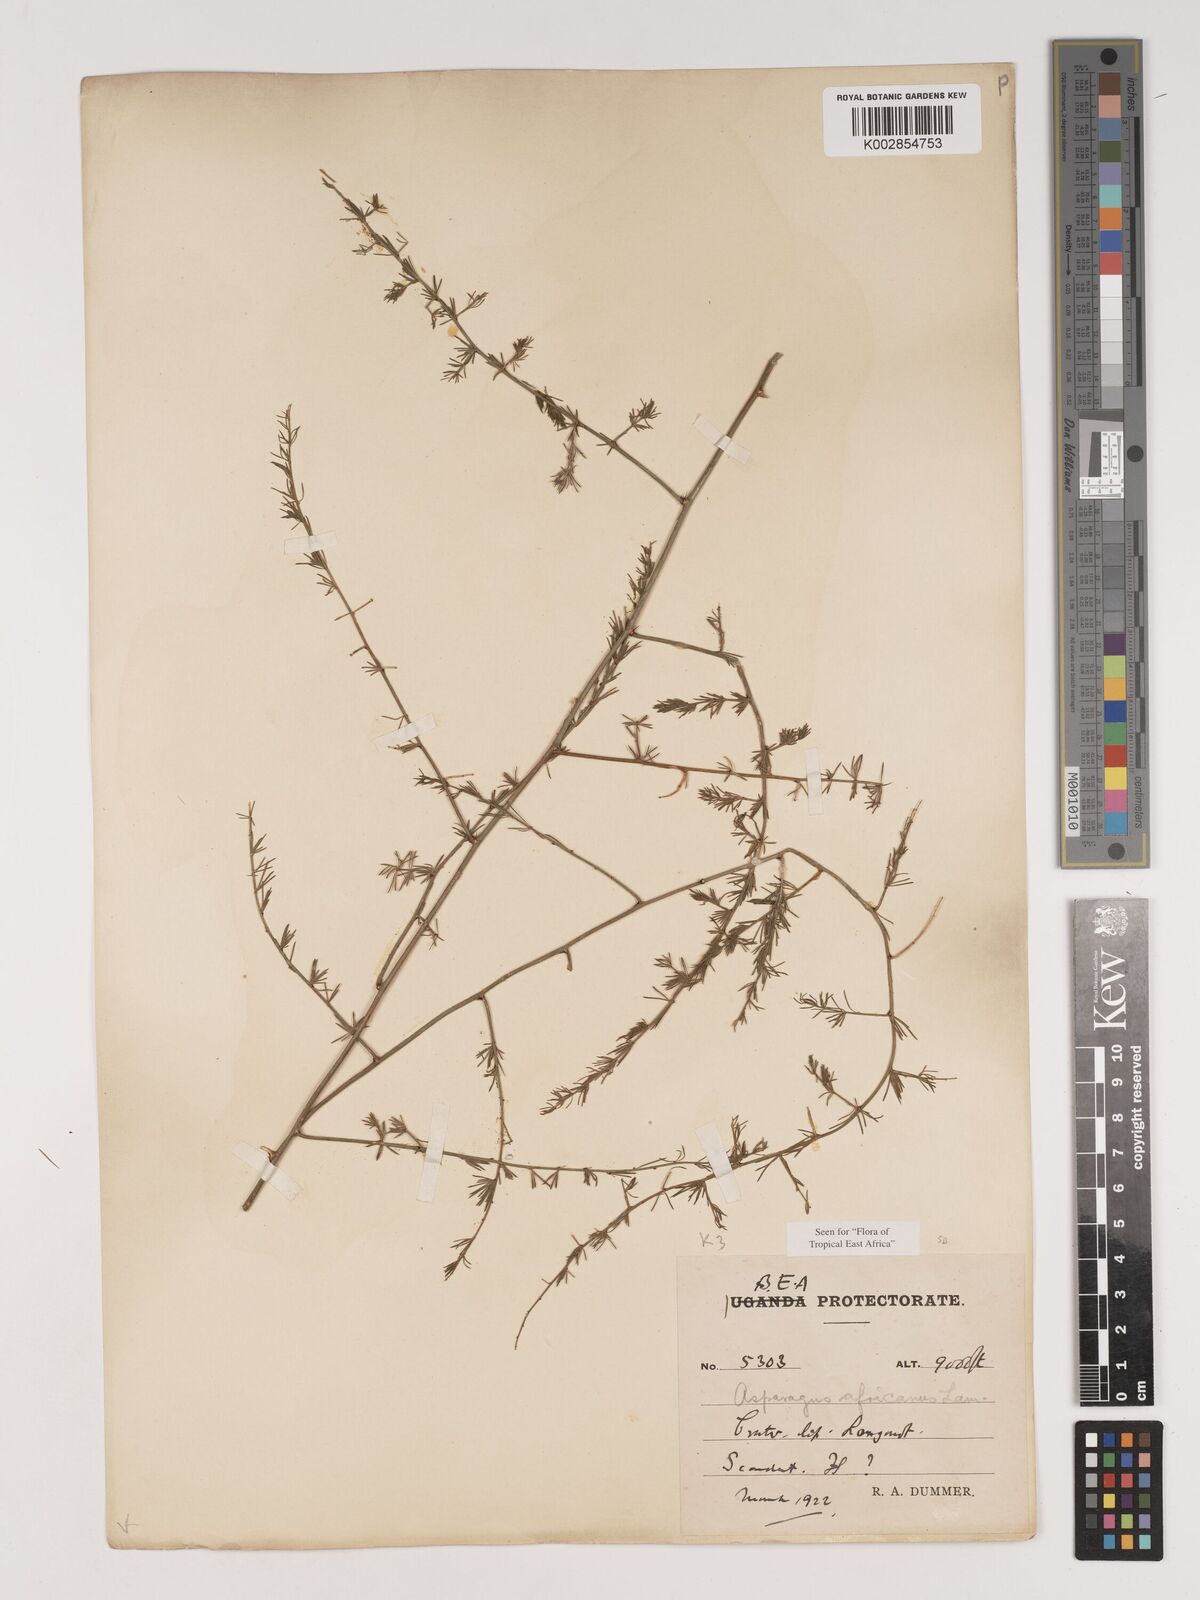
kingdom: Plantae
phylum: Tracheophyta
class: Liliopsida
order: Asparagales
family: Asparagaceae
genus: Asparagus
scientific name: Asparagus africanus
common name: Asparagus-fern
